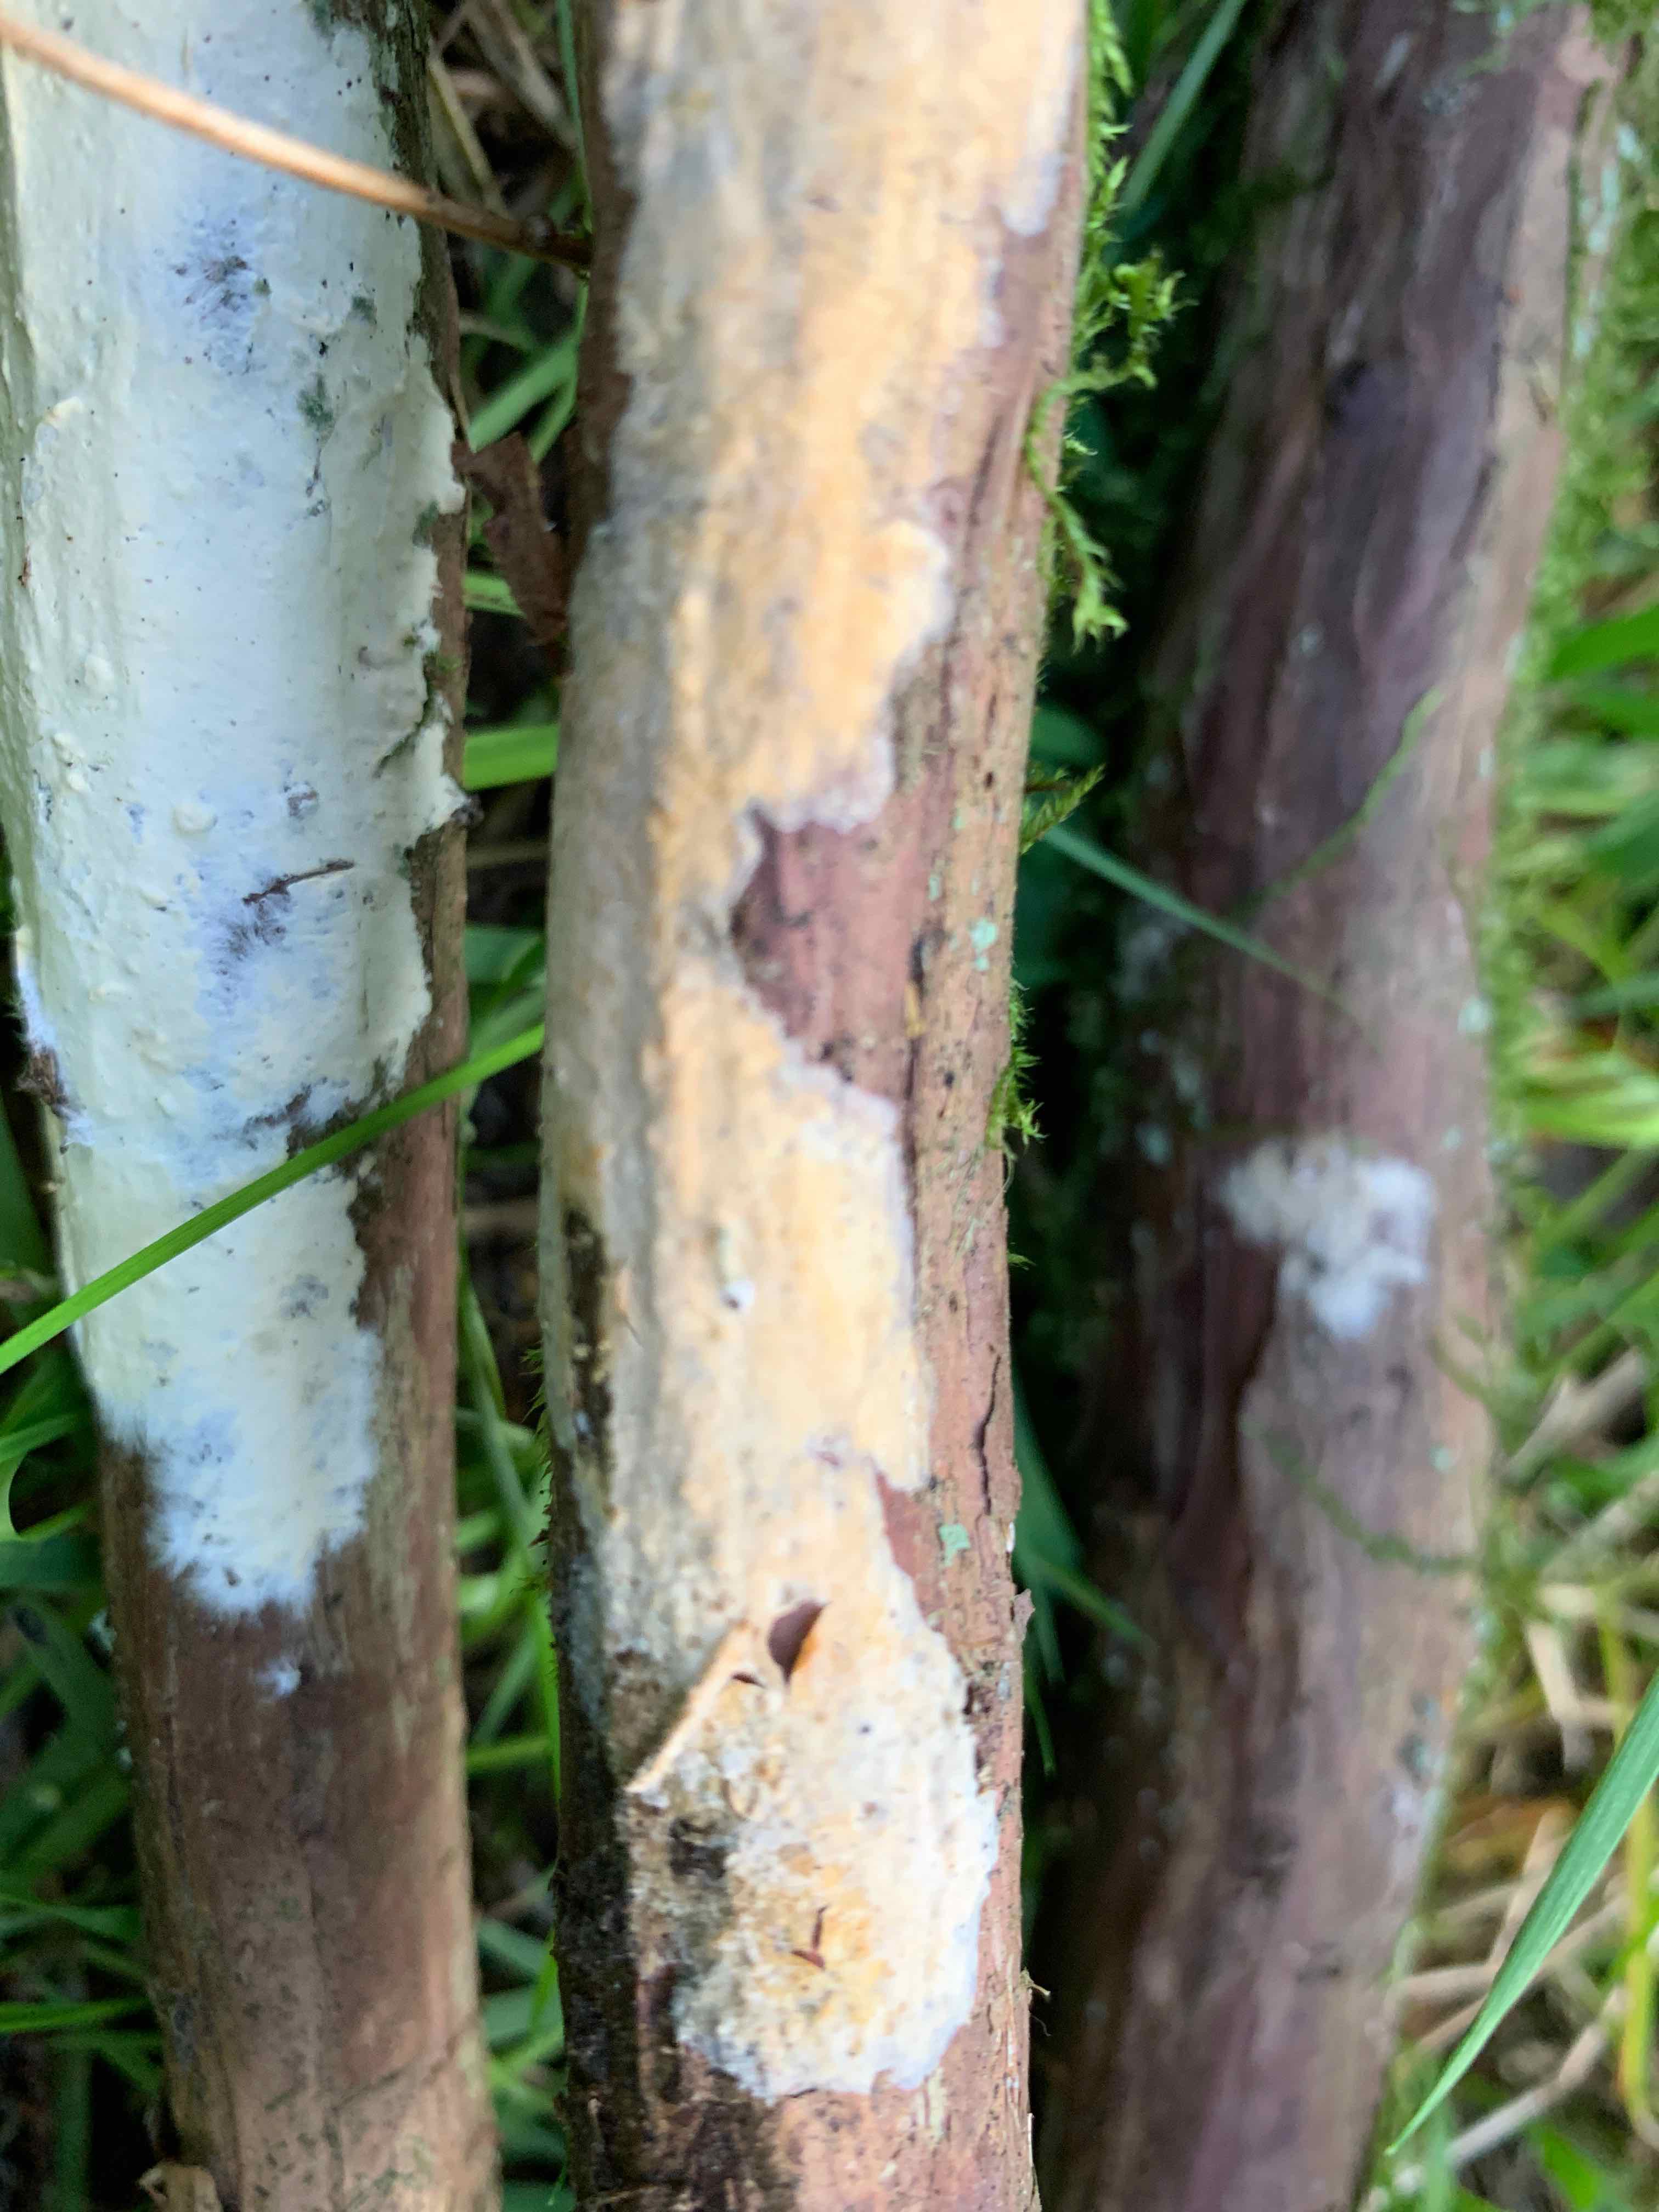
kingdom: Fungi
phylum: Basidiomycota
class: Agaricomycetes
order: Agaricales
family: Radulomycetaceae
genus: Radulomyces
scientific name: Radulomyces confluens
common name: glat naftalinskind
